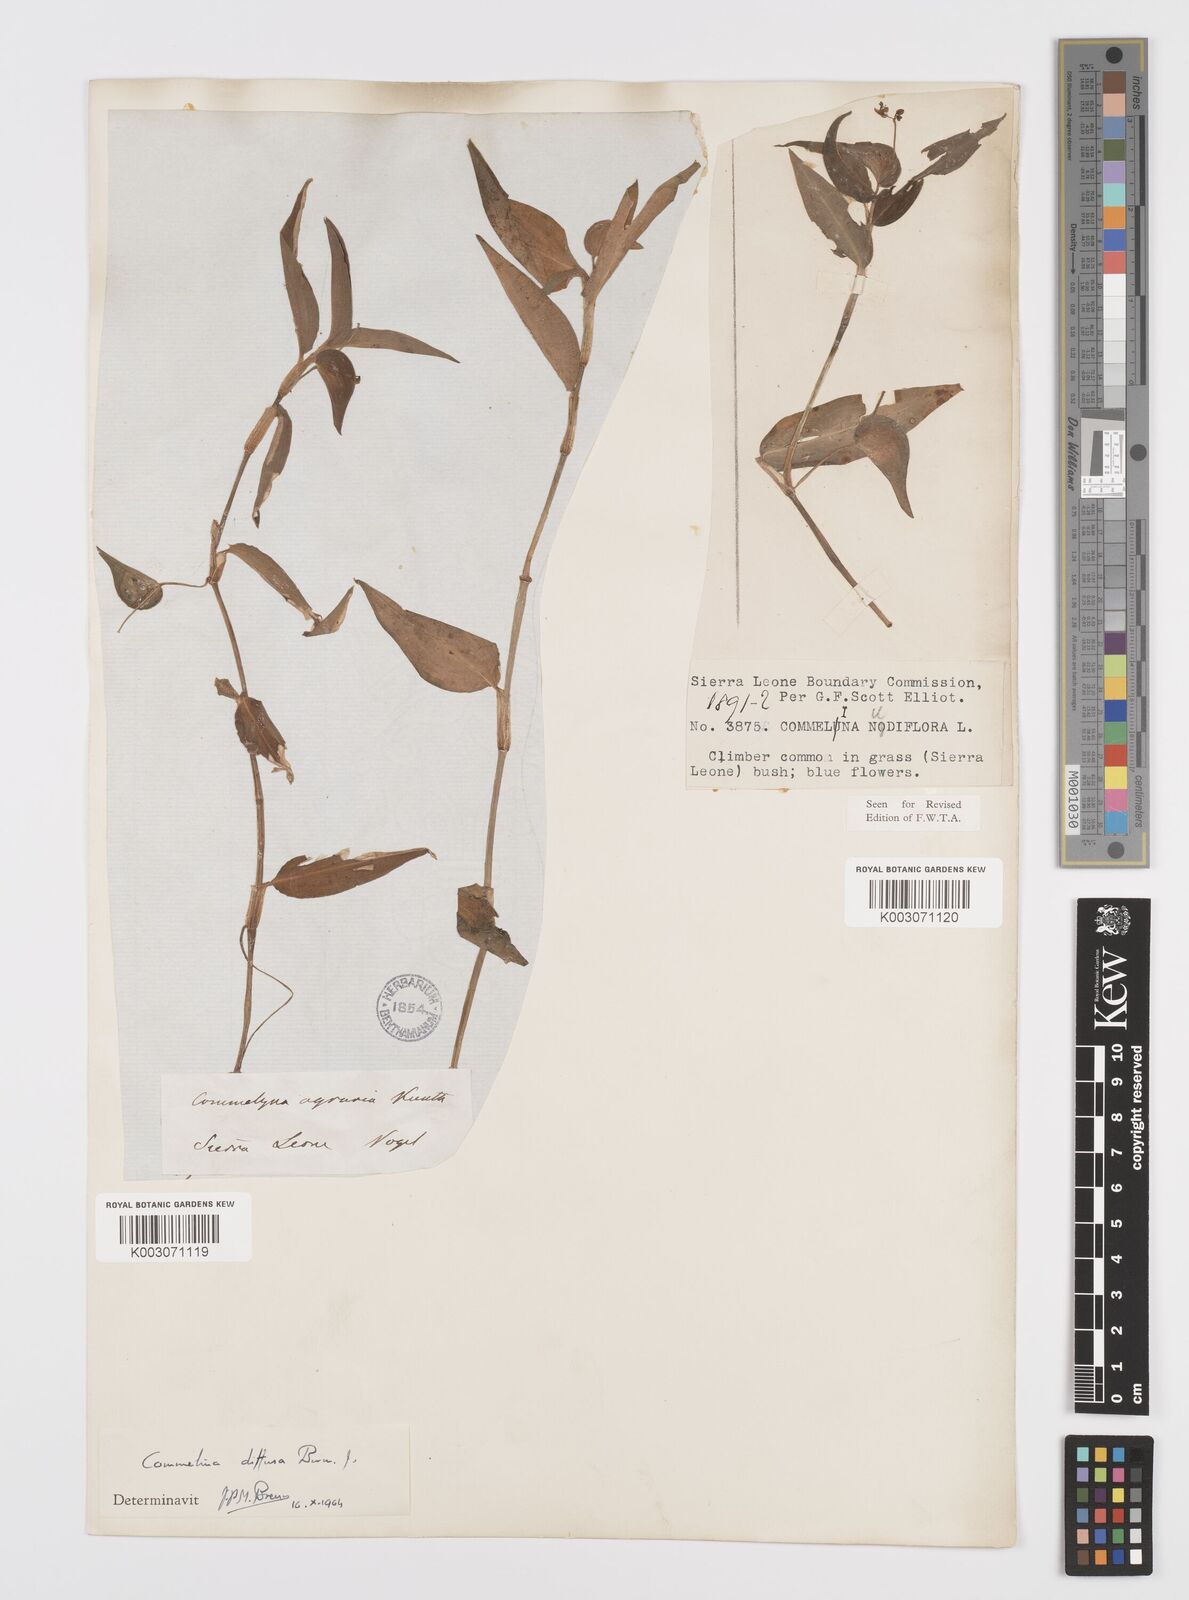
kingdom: Plantae
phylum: Tracheophyta
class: Liliopsida
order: Commelinales
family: Commelinaceae
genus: Commelina
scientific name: Commelina diffusa
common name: Climbing dayflower
